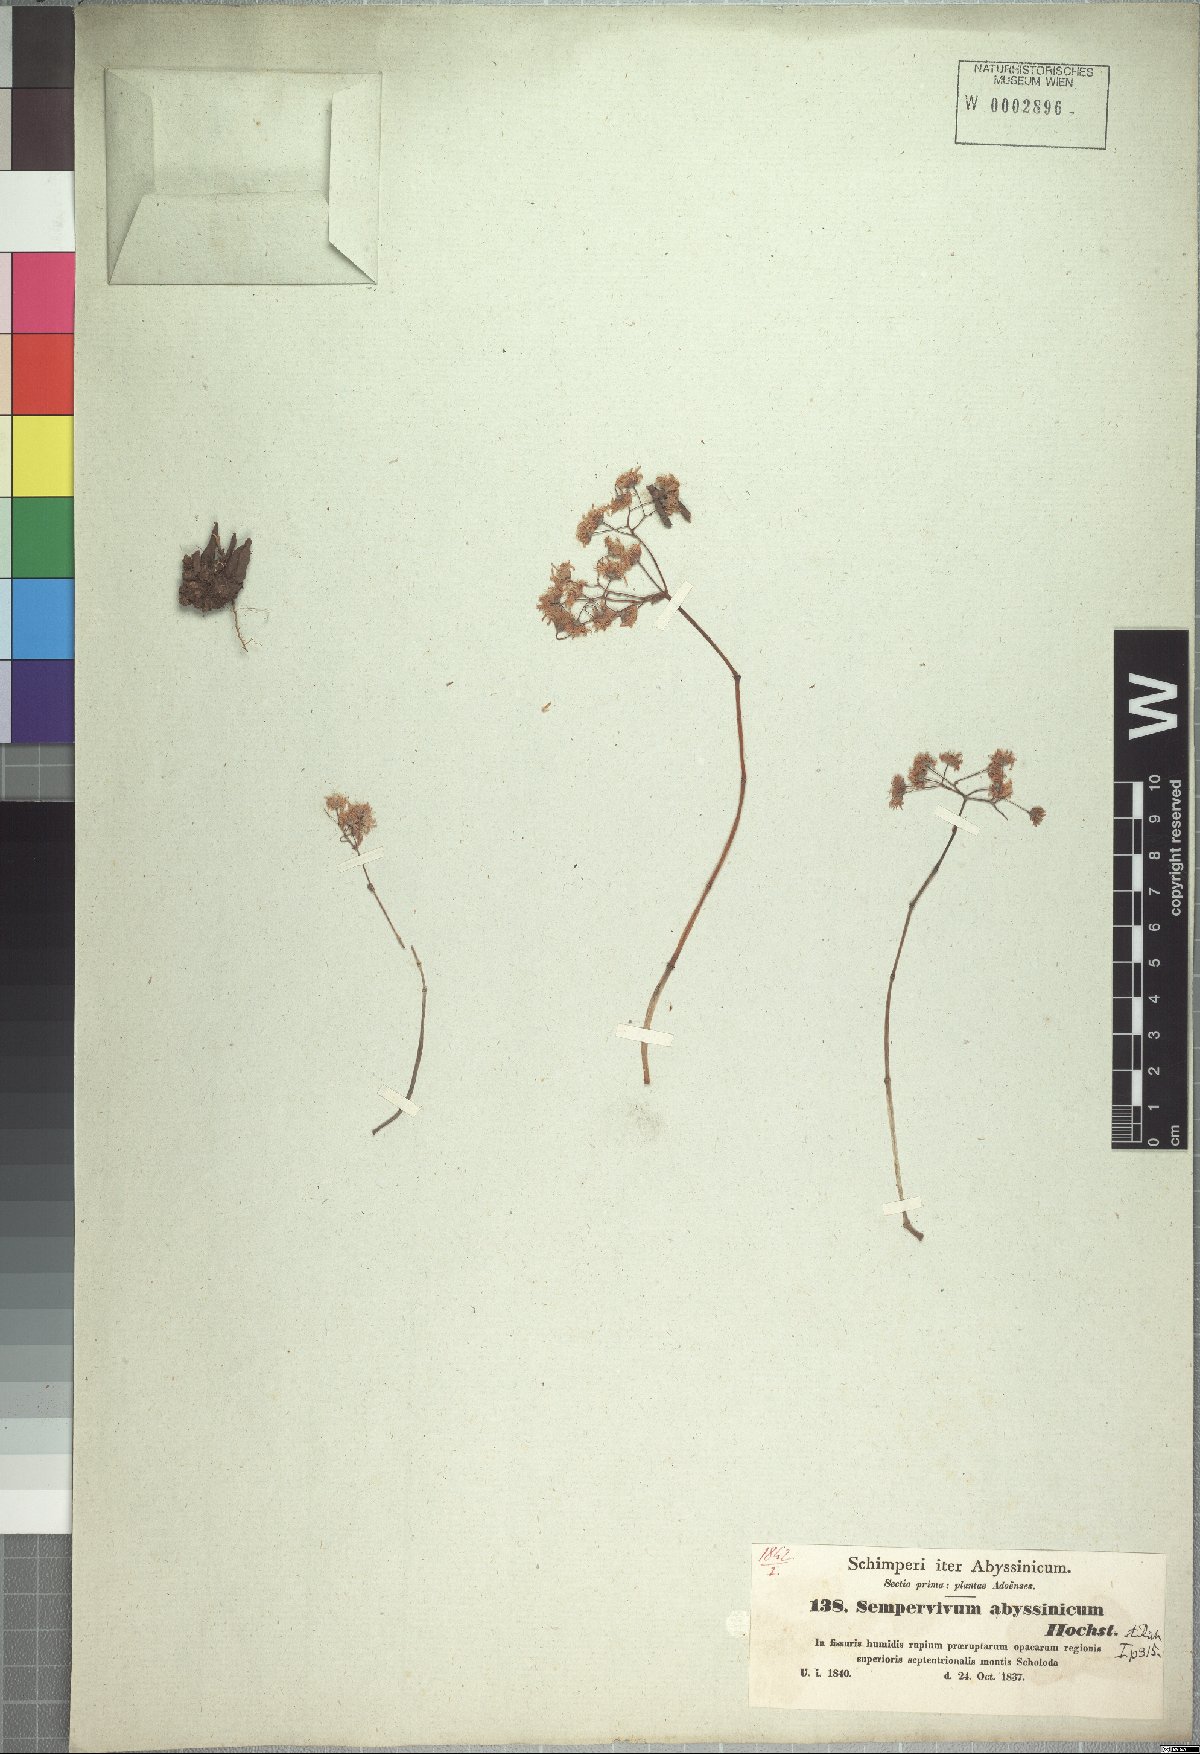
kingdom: Plantae
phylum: Tracheophyta
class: Magnoliopsida
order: Saxifragales
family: Crassulaceae
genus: Hypagophytum
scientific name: Hypagophytum abyssinicum
